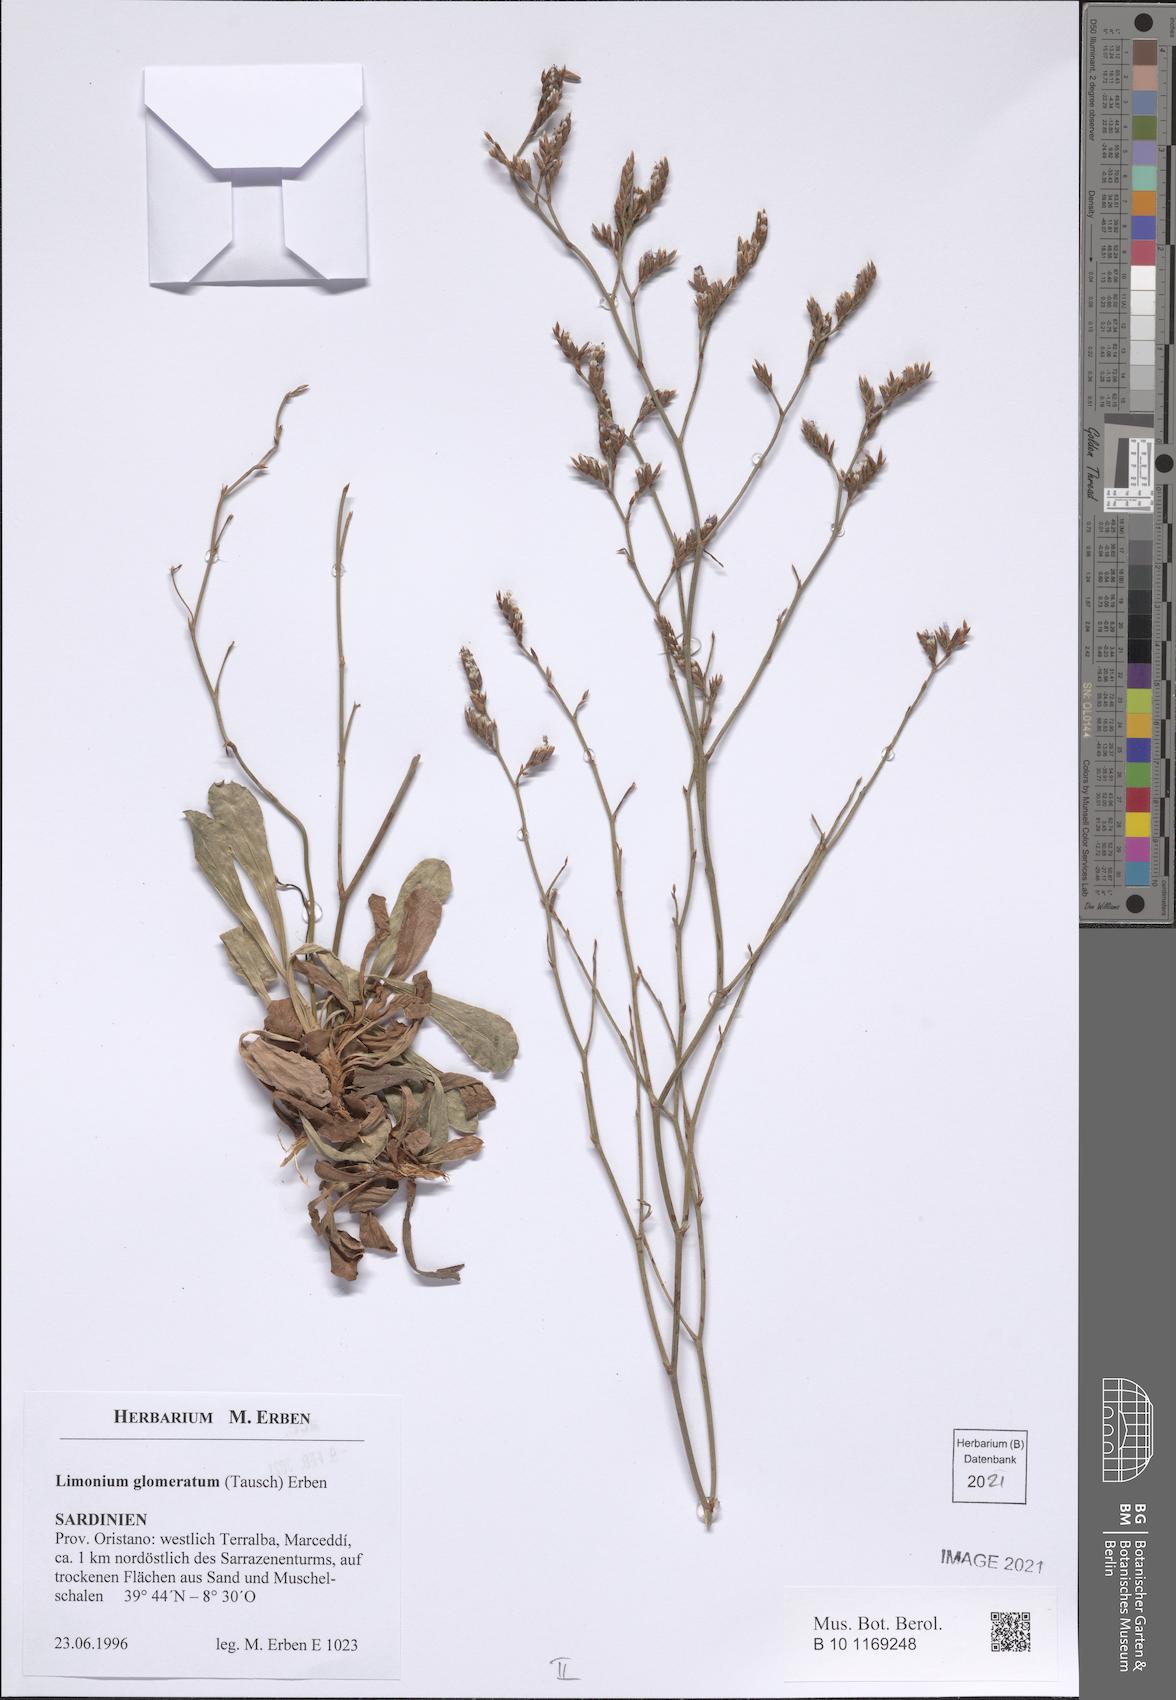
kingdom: Plantae
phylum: Tracheophyta
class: Magnoliopsida
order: Caryophyllales
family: Plumbaginaceae
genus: Limonium
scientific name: Limonium glomeratum
